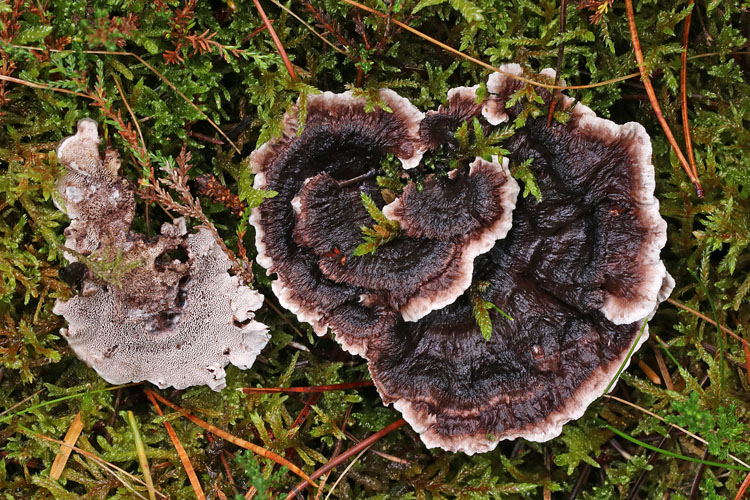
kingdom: Fungi
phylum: Basidiomycota
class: Agaricomycetes
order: Thelephorales
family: Thelephoraceae
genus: Phellodon
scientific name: Phellodon tomentosus
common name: vellugtende duftpigsvamp
